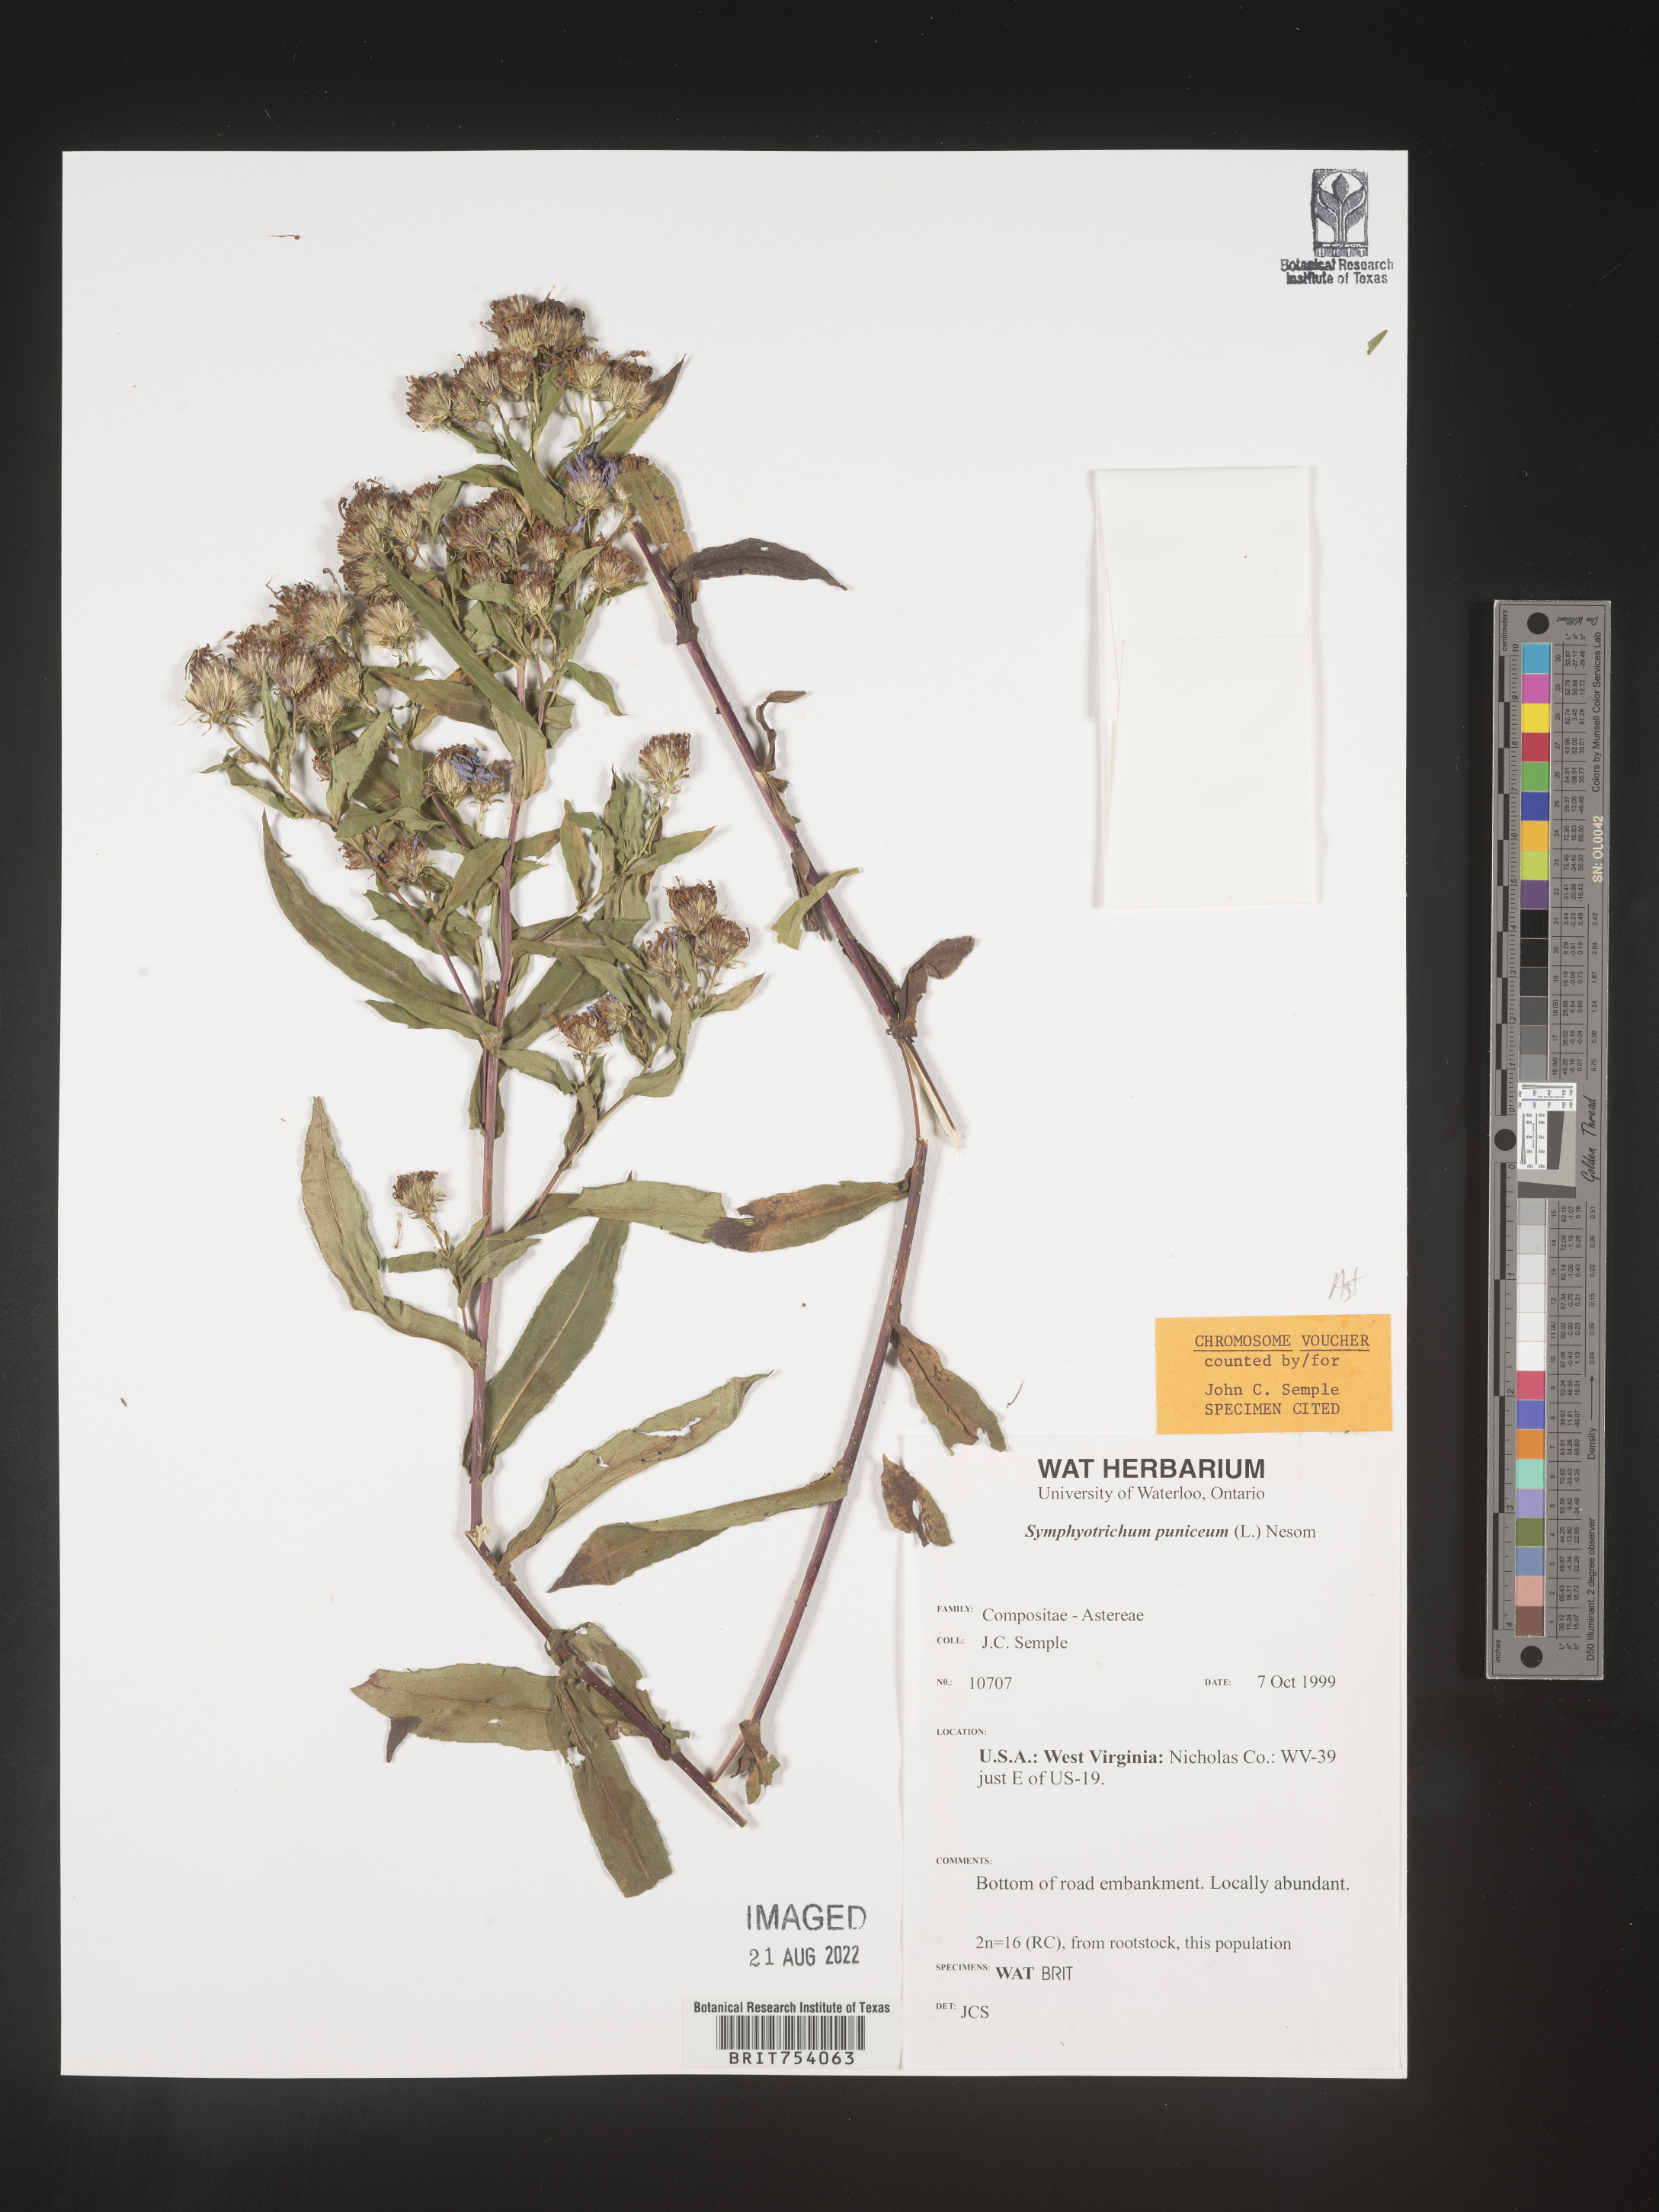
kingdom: Plantae
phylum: Tracheophyta
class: Magnoliopsida
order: Asterales
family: Asteraceae
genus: Symphyotrichum
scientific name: Symphyotrichum puniceum
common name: Bog aster
